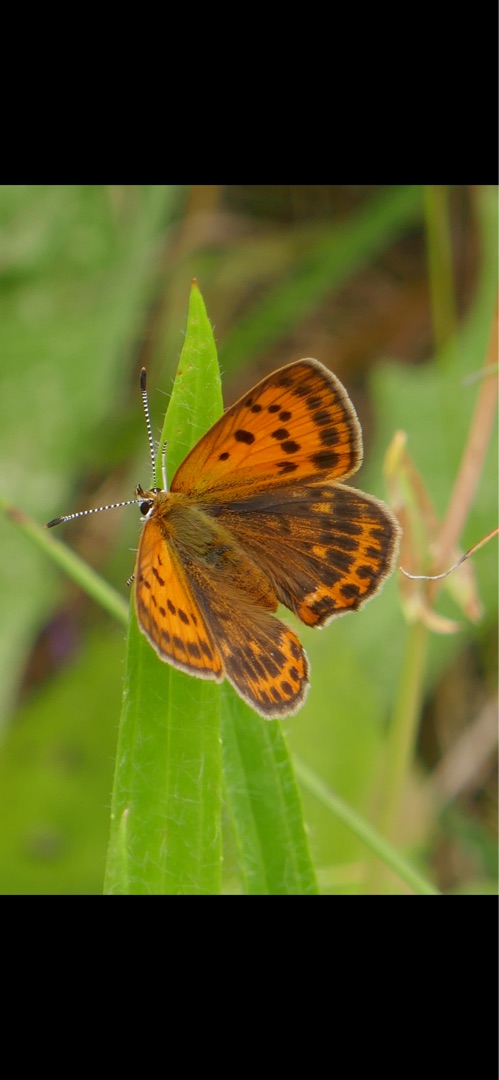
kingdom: Animalia
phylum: Arthropoda
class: Insecta
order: Lepidoptera
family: Lycaenidae
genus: Lycaena
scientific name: Lycaena virgaureae
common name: Dukatsommerfugl
